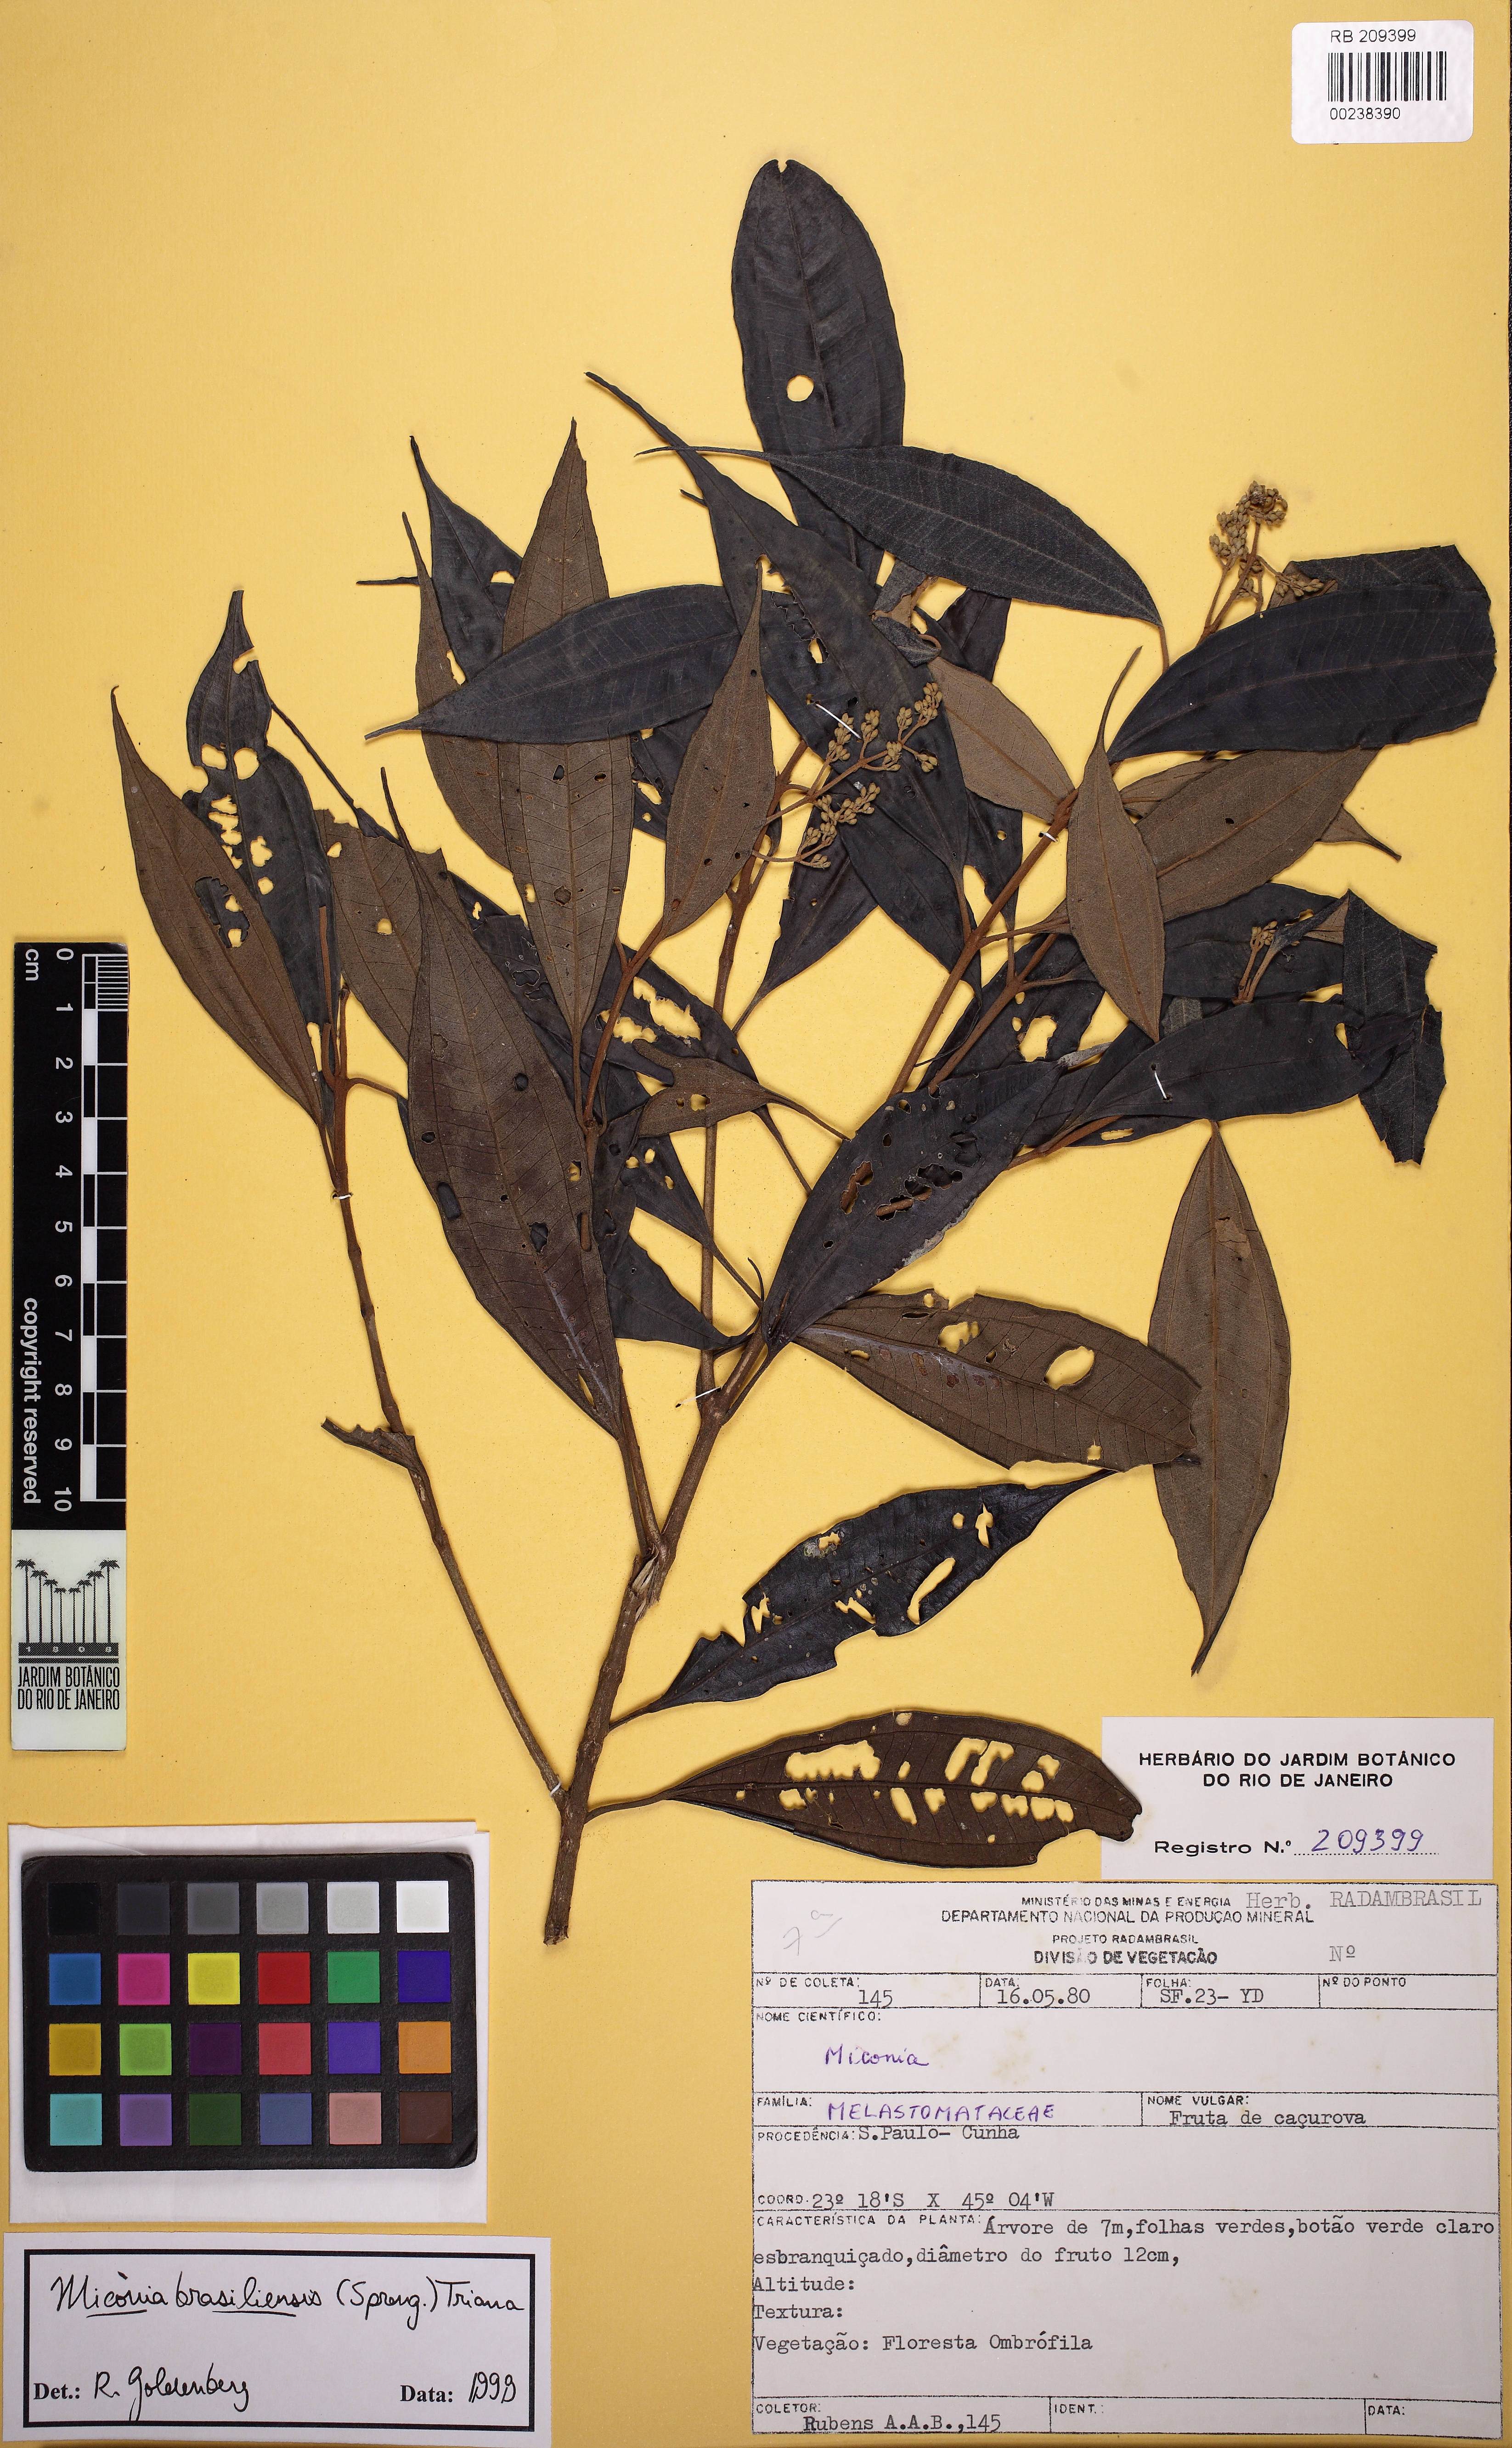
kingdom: Plantae
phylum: Tracheophyta
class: Magnoliopsida
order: Myrtales
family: Melastomataceae
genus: Miconia
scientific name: Miconia brasiliensis
